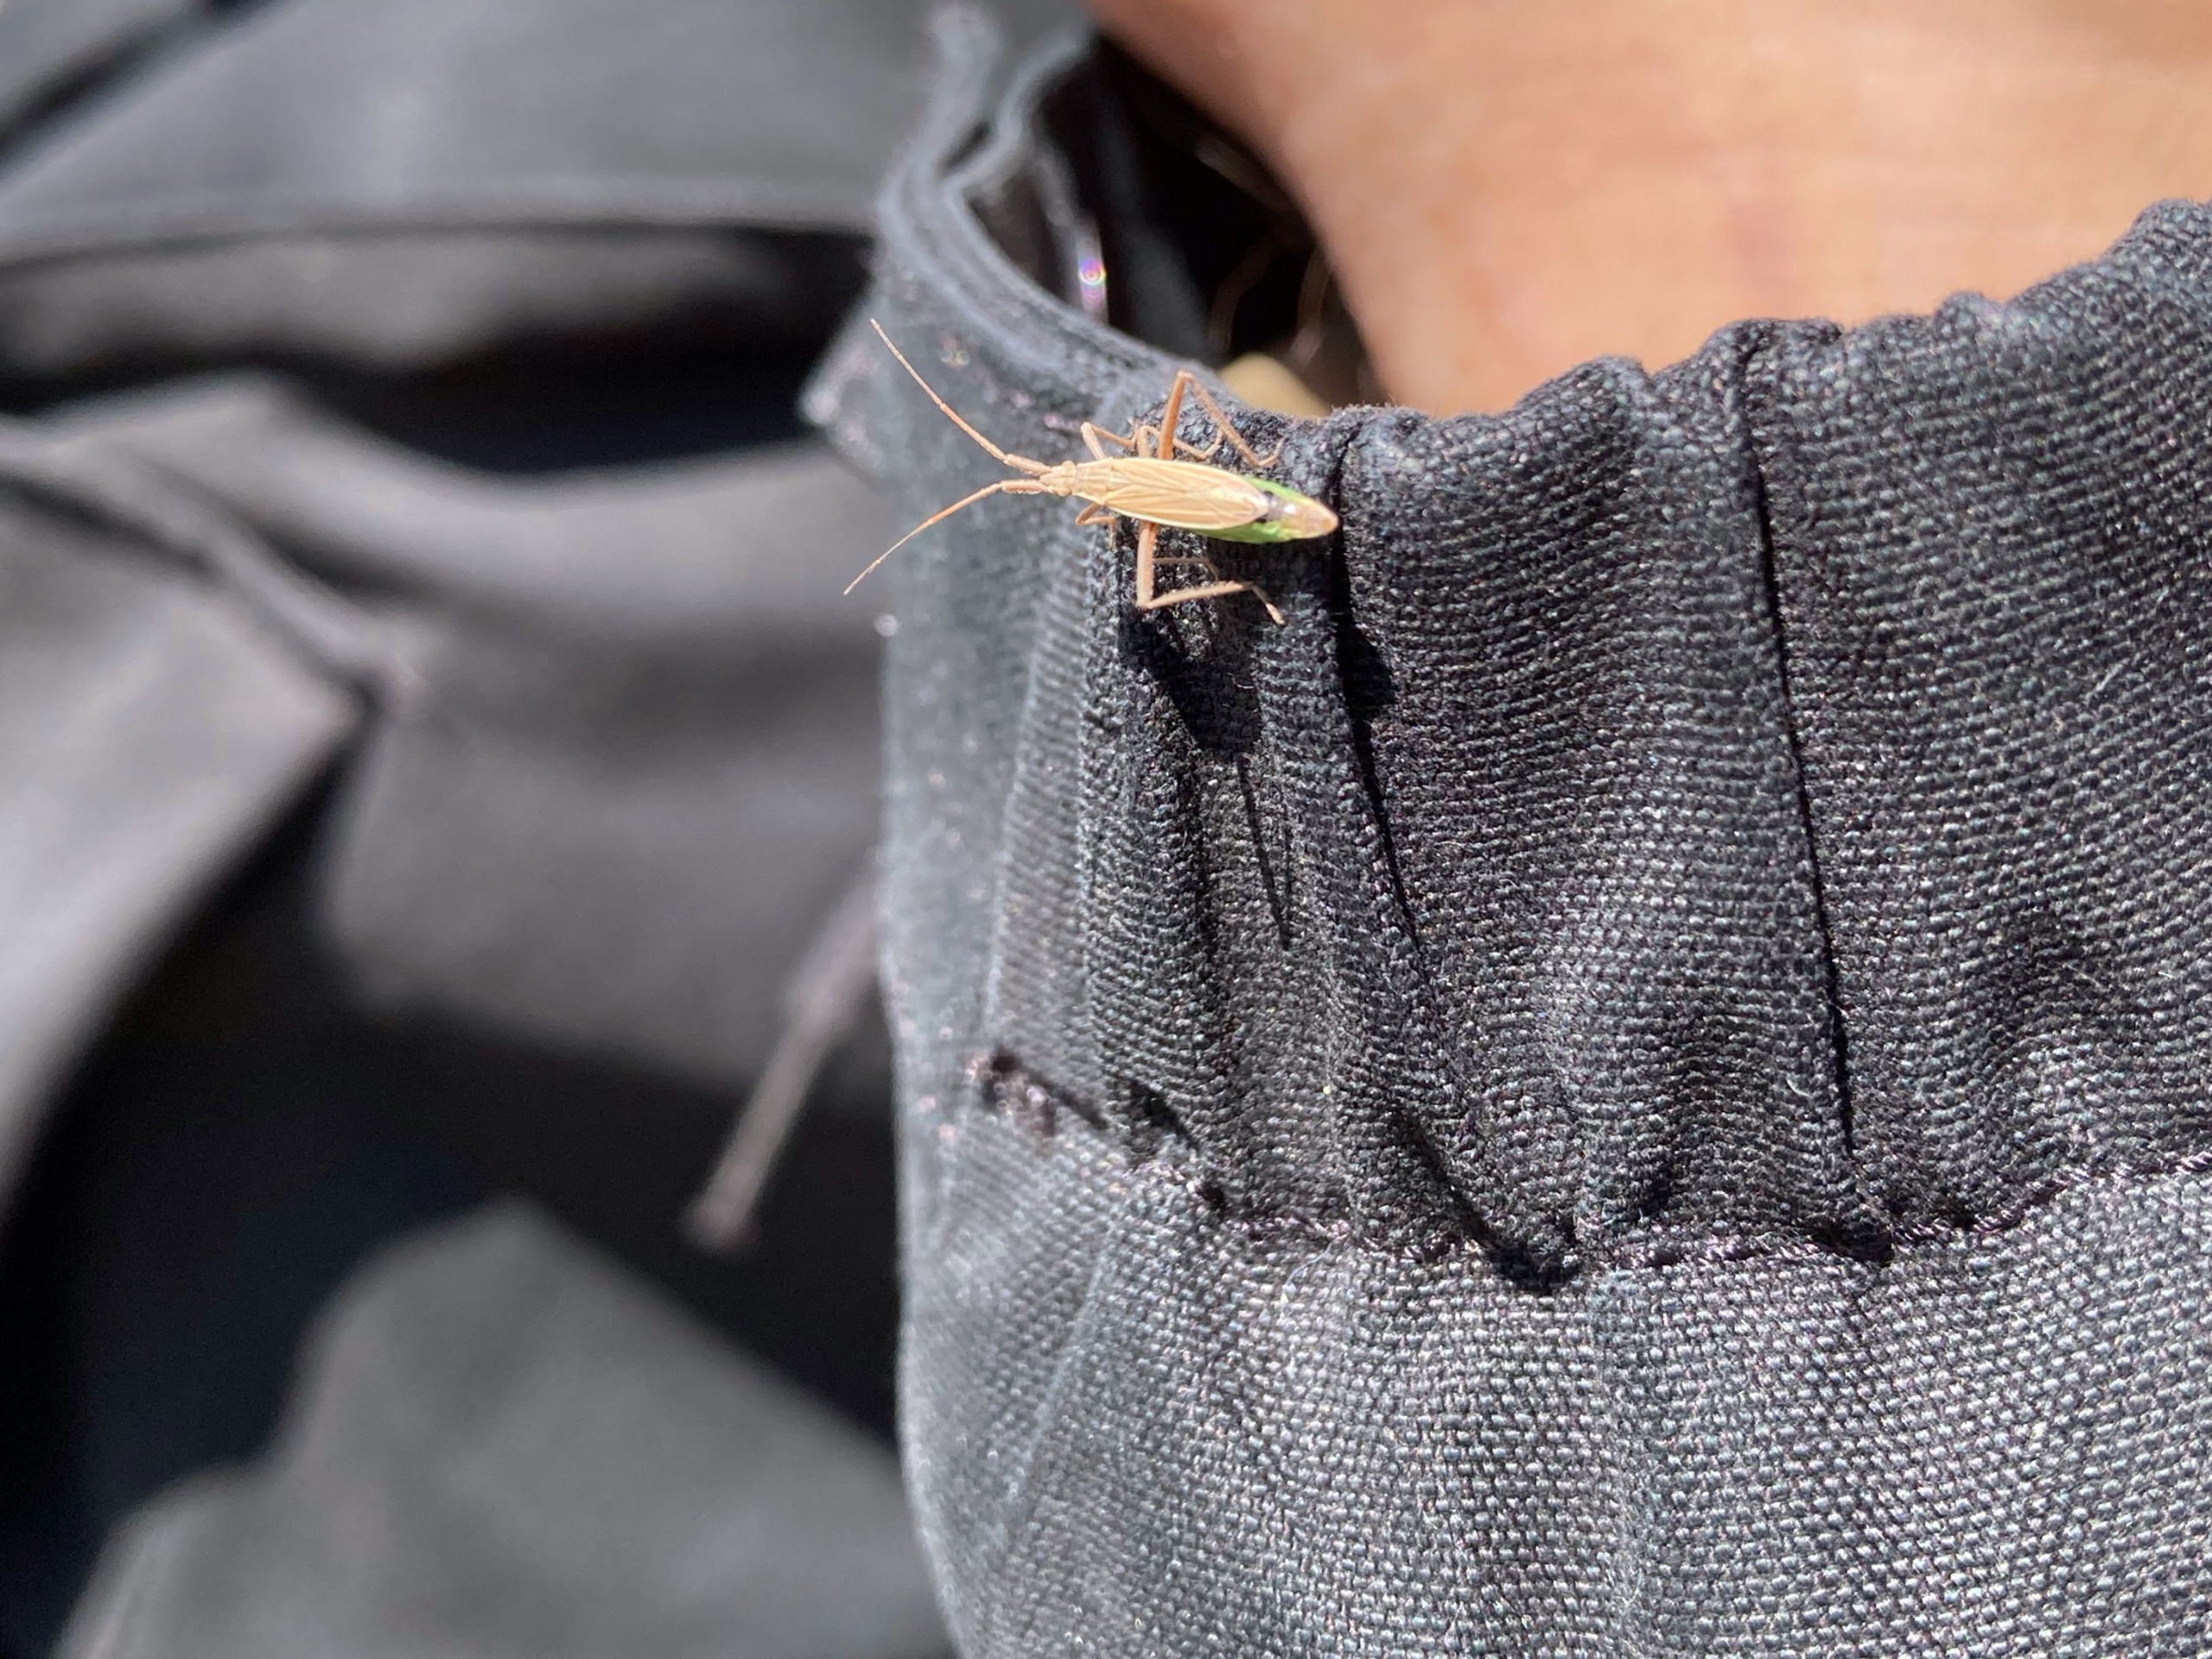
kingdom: Animalia
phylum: Arthropoda
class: Insecta
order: Hemiptera
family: Miridae
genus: Notostira
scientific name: Notostira
